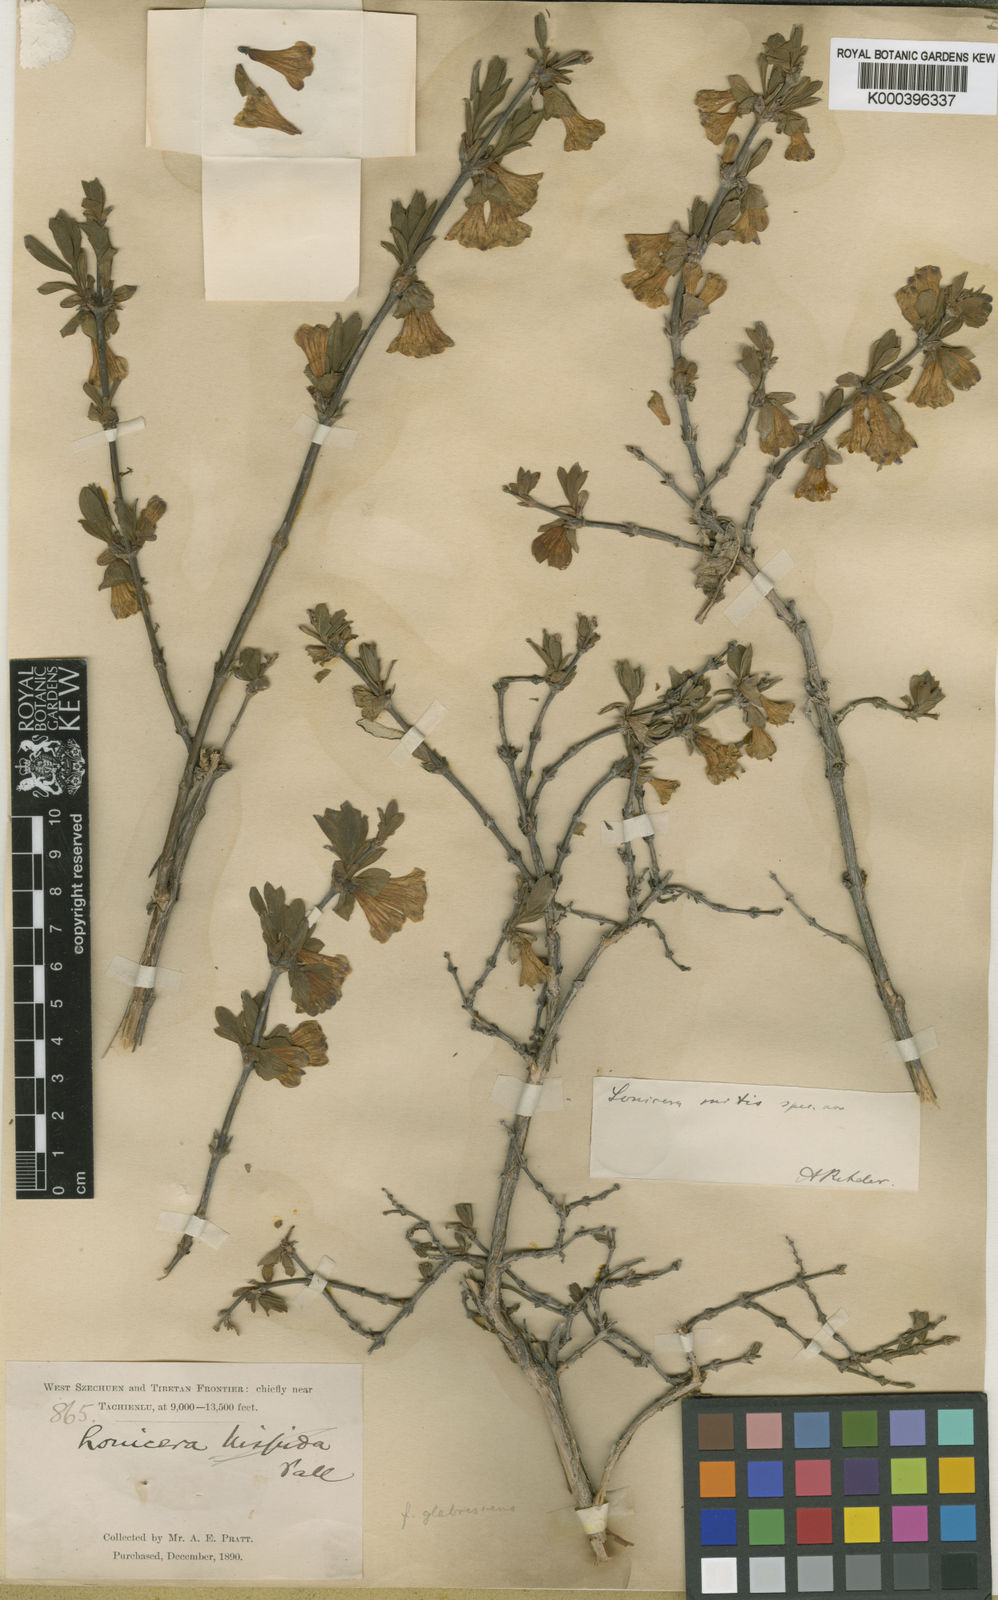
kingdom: Plantae
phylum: Tracheophyta
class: Magnoliopsida
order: Dipsacales
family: Caprifoliaceae
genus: Lonicera
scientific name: Lonicera cyanocarpa
